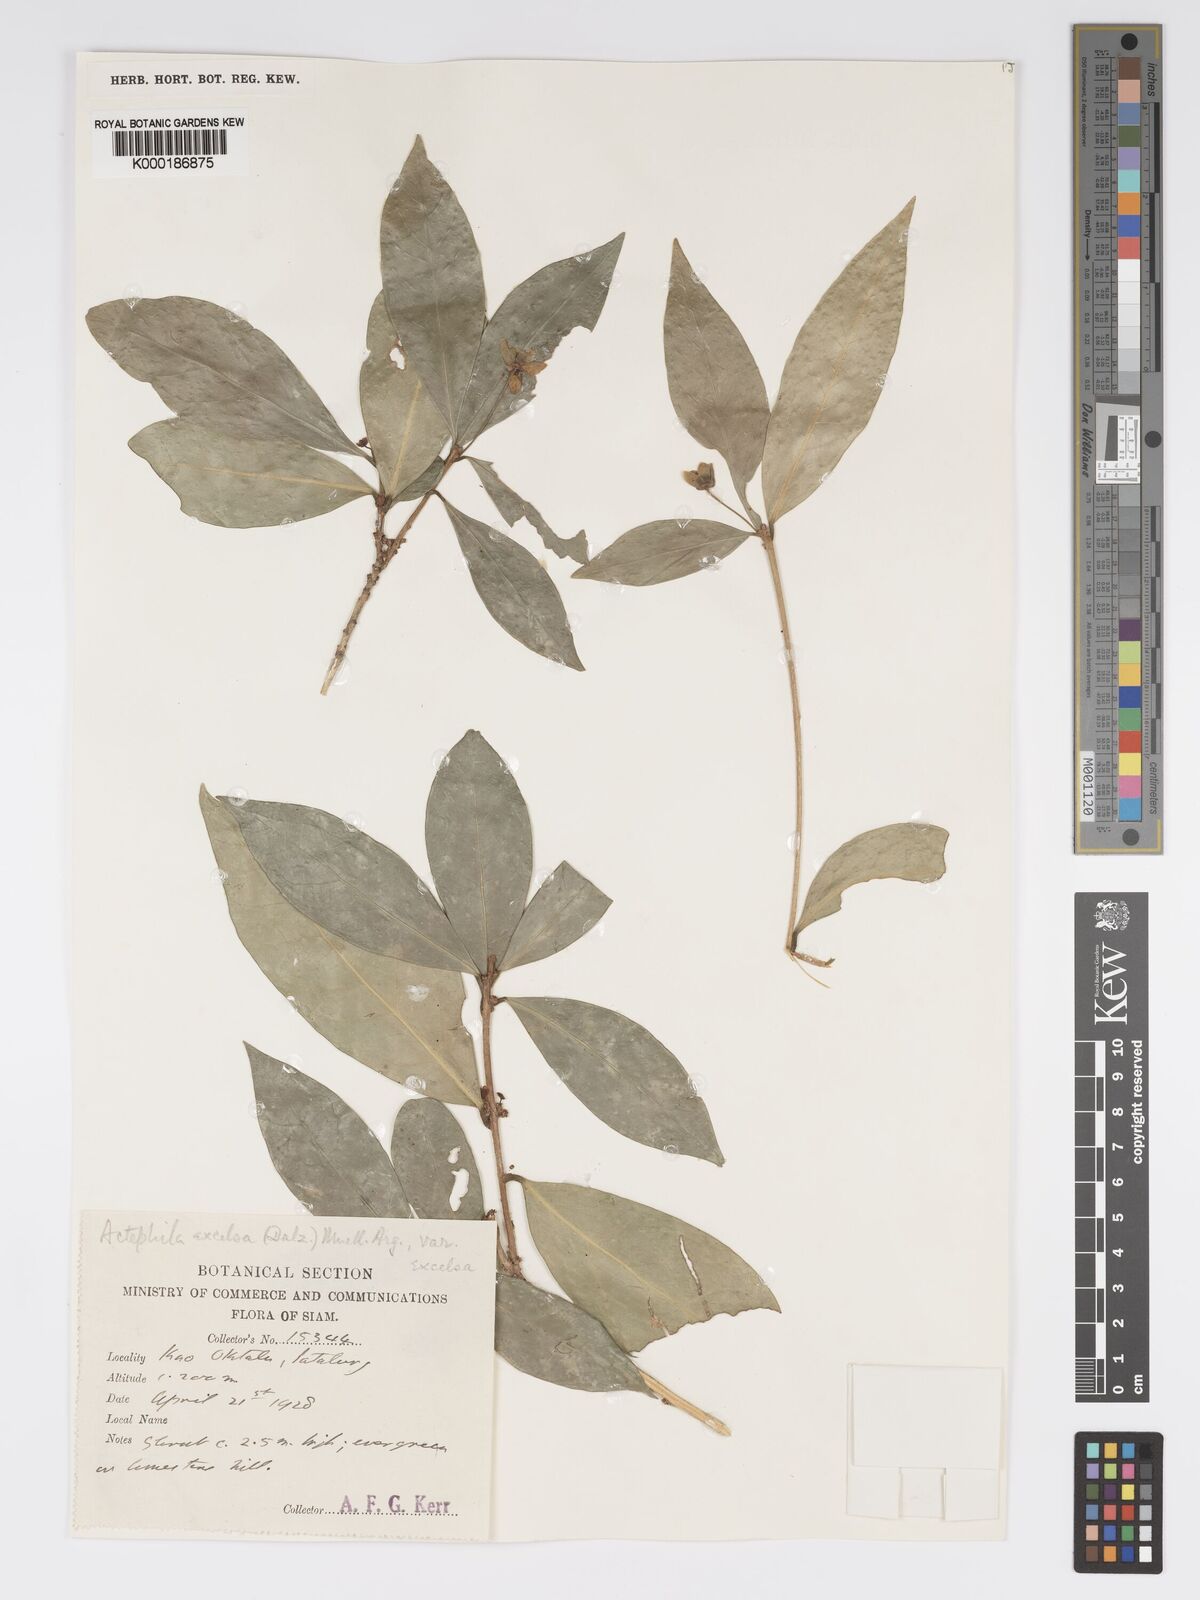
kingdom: Plantae
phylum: Tracheophyta
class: Magnoliopsida
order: Malpighiales
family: Phyllanthaceae
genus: Actephila
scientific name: Actephila
